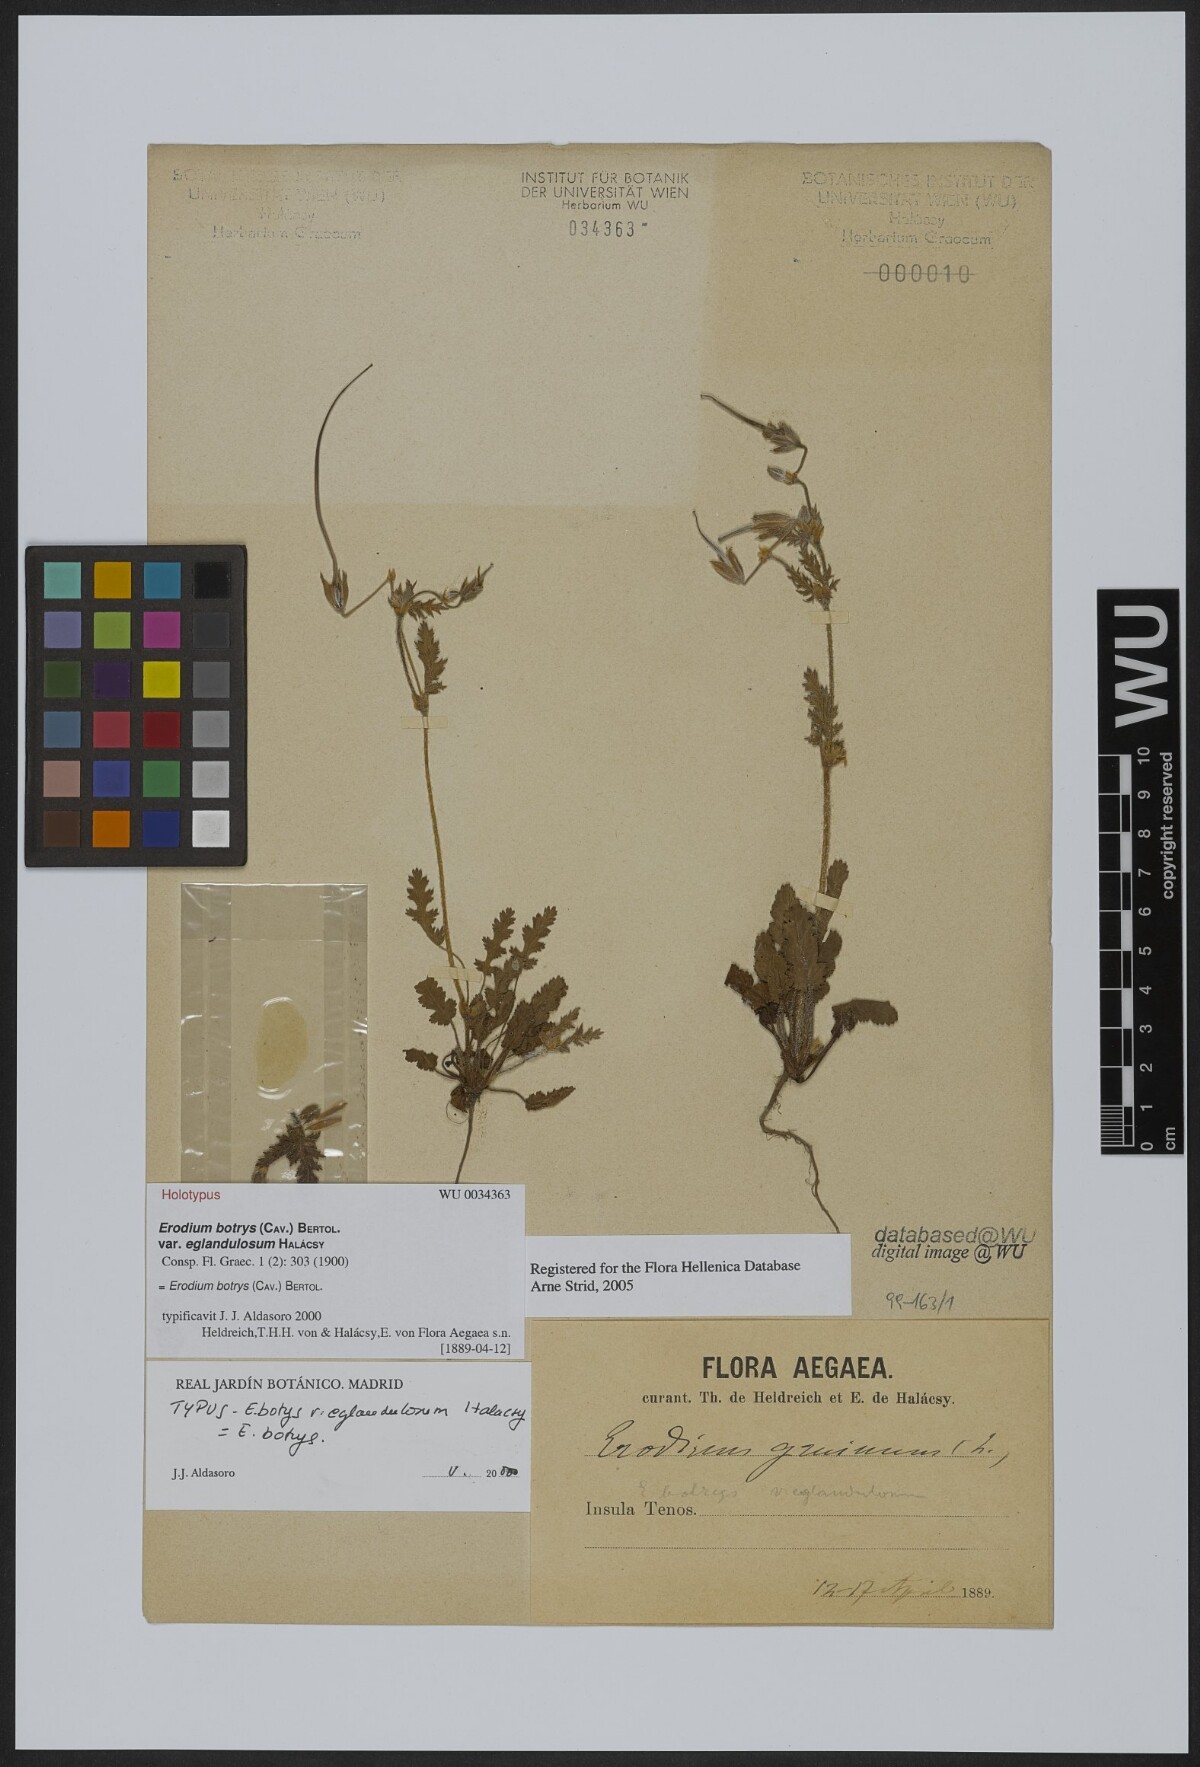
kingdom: Plantae
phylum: Tracheophyta
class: Magnoliopsida
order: Geraniales
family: Geraniaceae
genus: Erodium
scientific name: Erodium botrys
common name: Mediterranean stork's-bill
